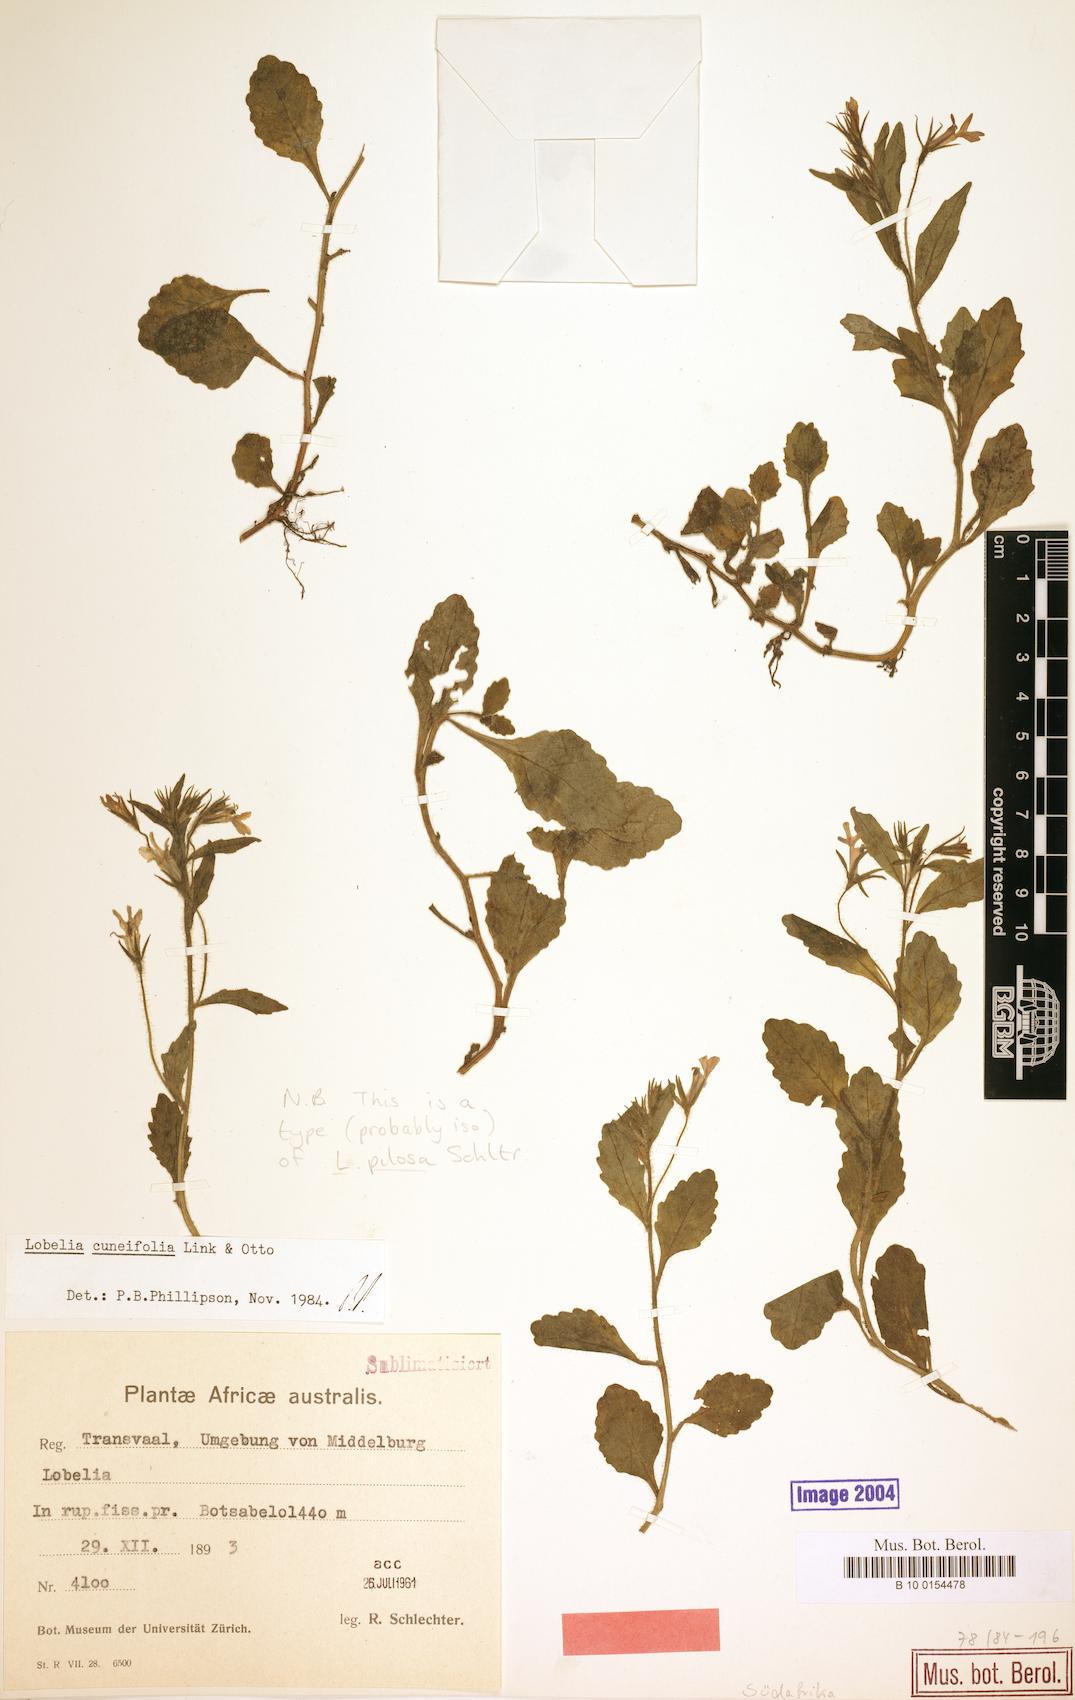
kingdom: Plantae
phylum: Tracheophyta
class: Magnoliopsida
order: Asterales
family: Campanulaceae
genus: Lobelia
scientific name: Lobelia cuneifolia
